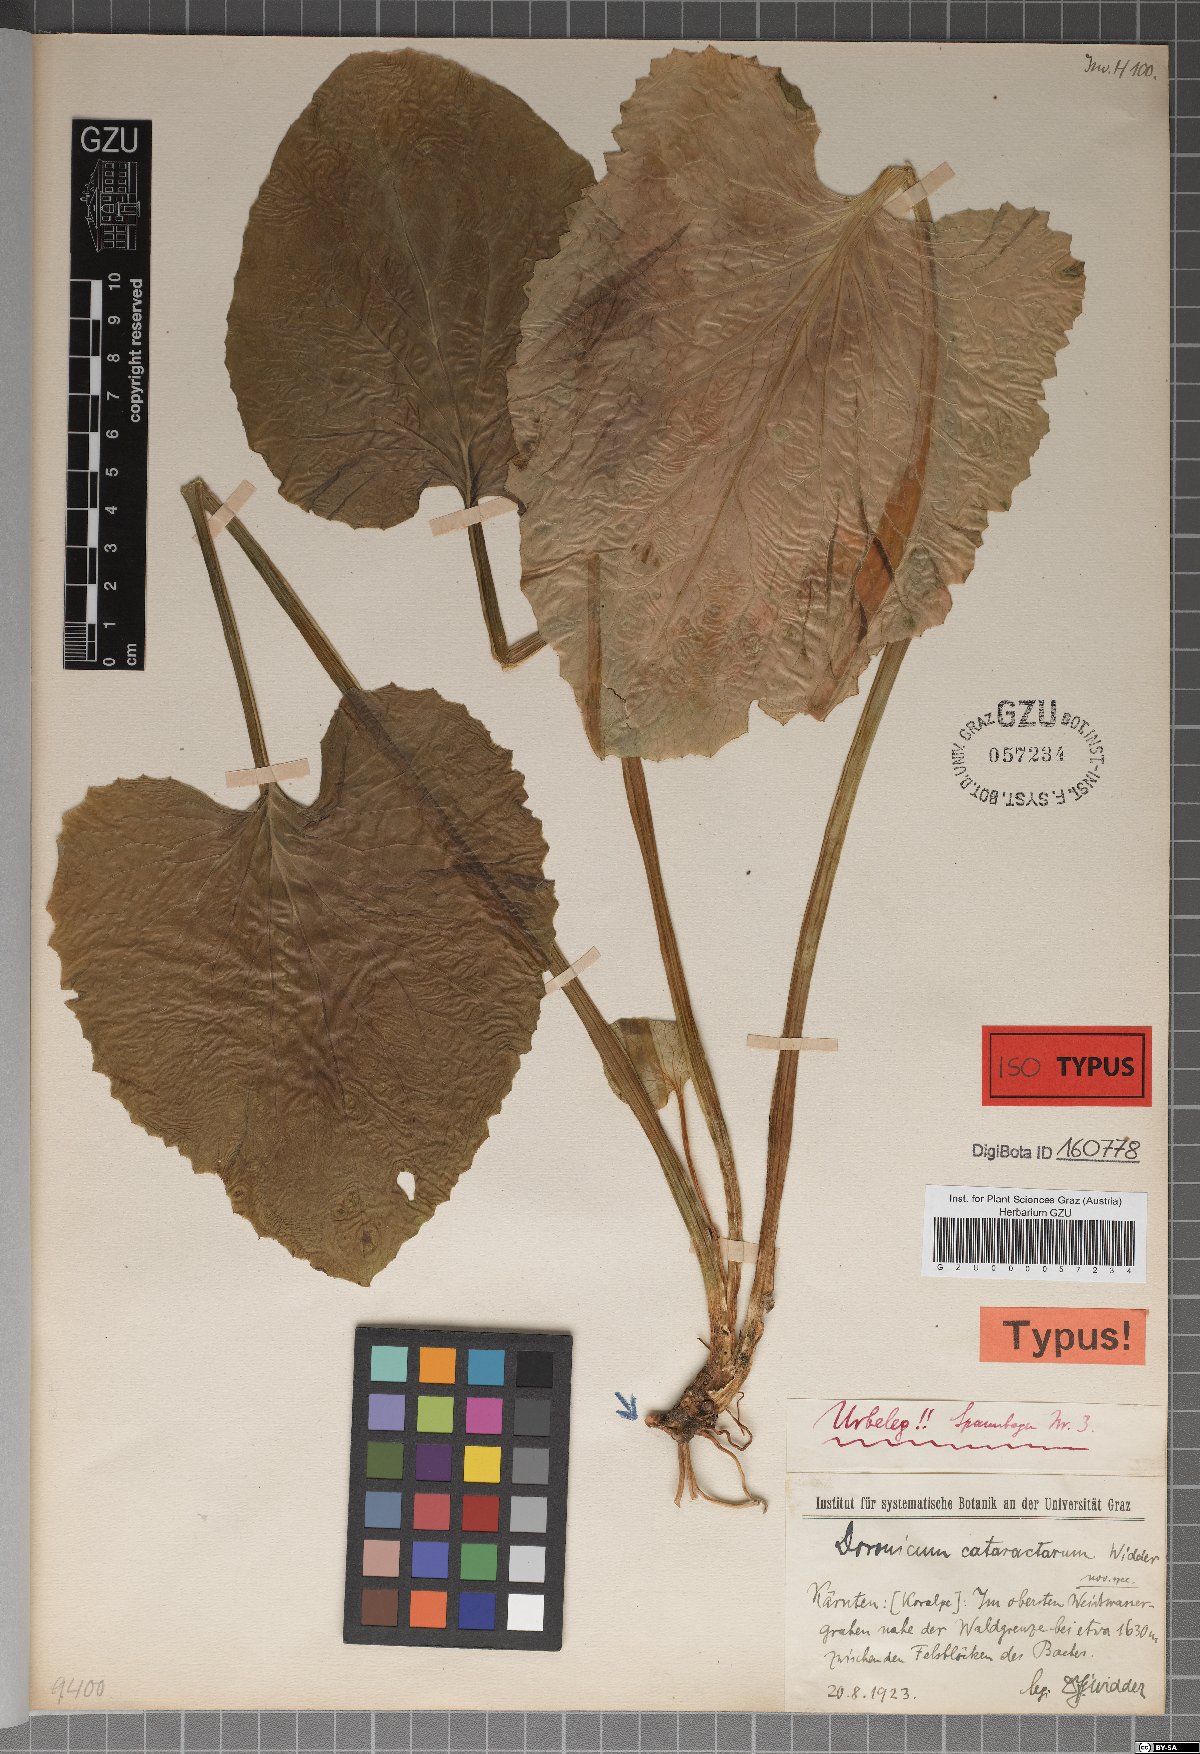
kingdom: Plantae
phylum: Tracheophyta
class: Magnoliopsida
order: Asterales
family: Asteraceae
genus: Doronicum
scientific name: Doronicum cataractarum
